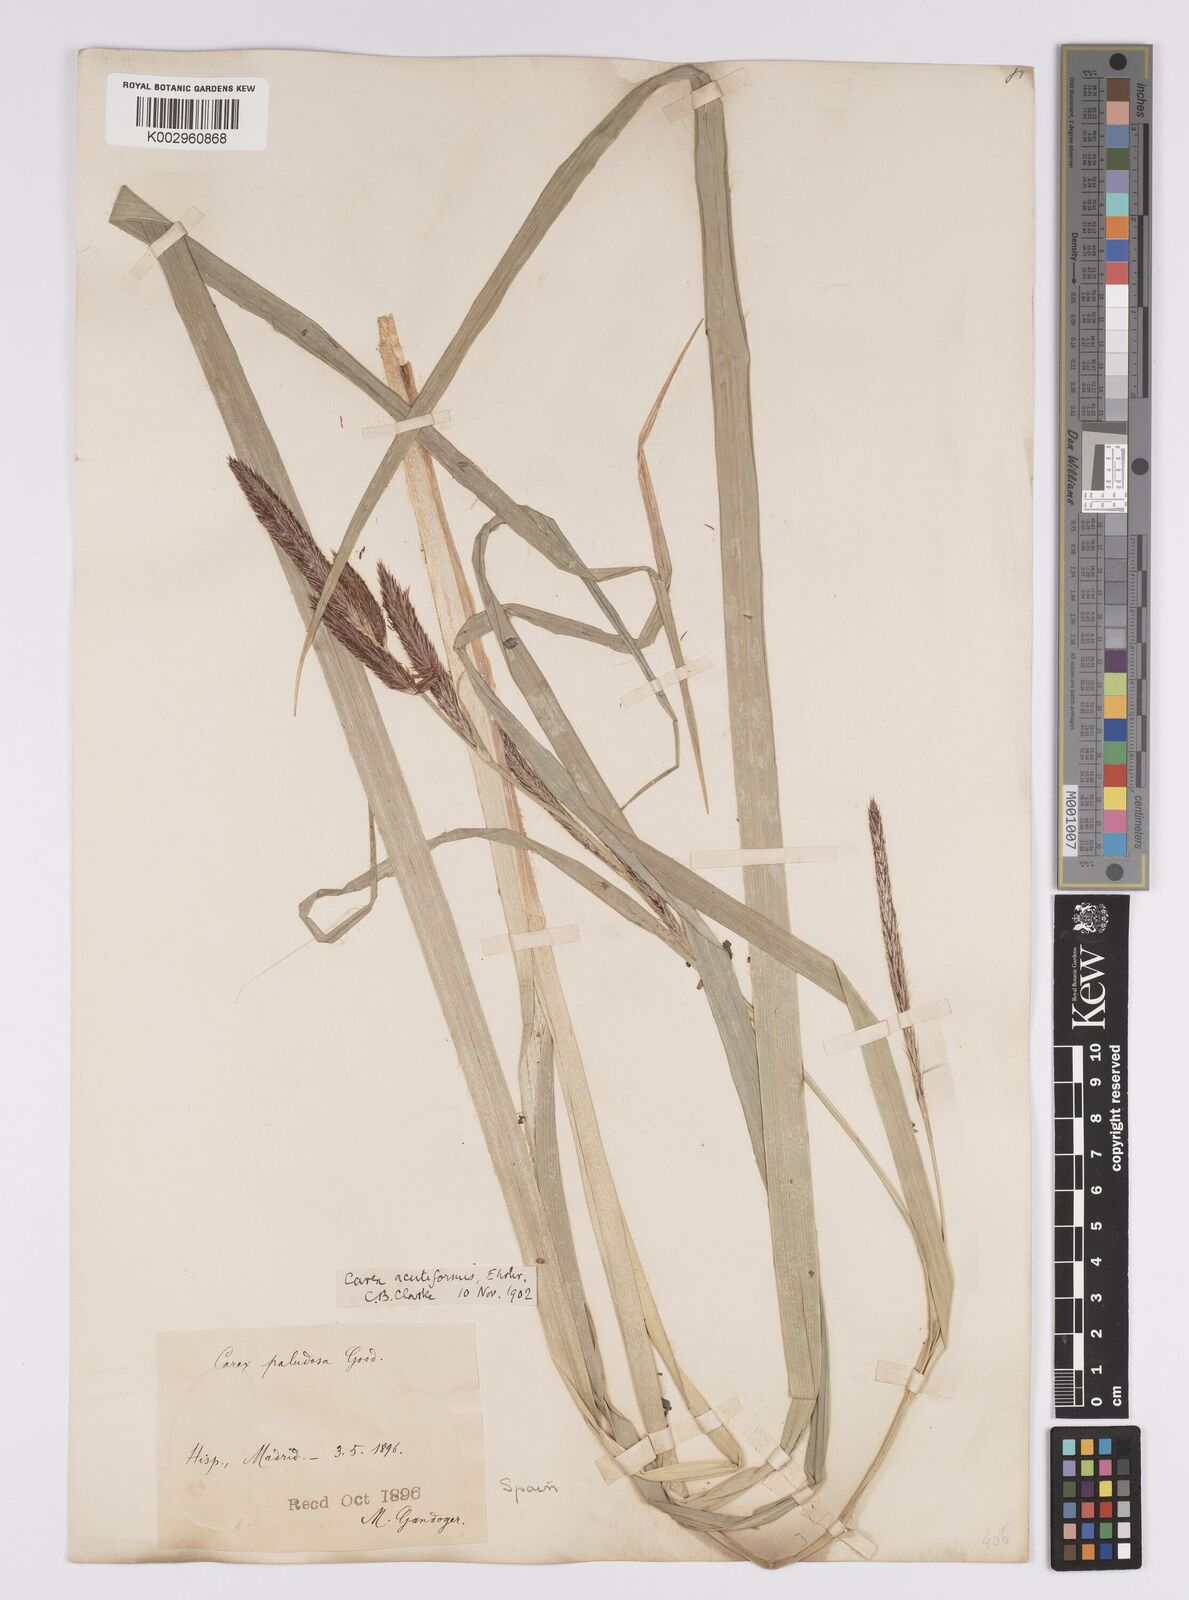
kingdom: Plantae
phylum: Tracheophyta
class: Liliopsida
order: Poales
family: Cyperaceae
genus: Carex
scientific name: Carex acutiformis
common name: Lesser pond-sedge
